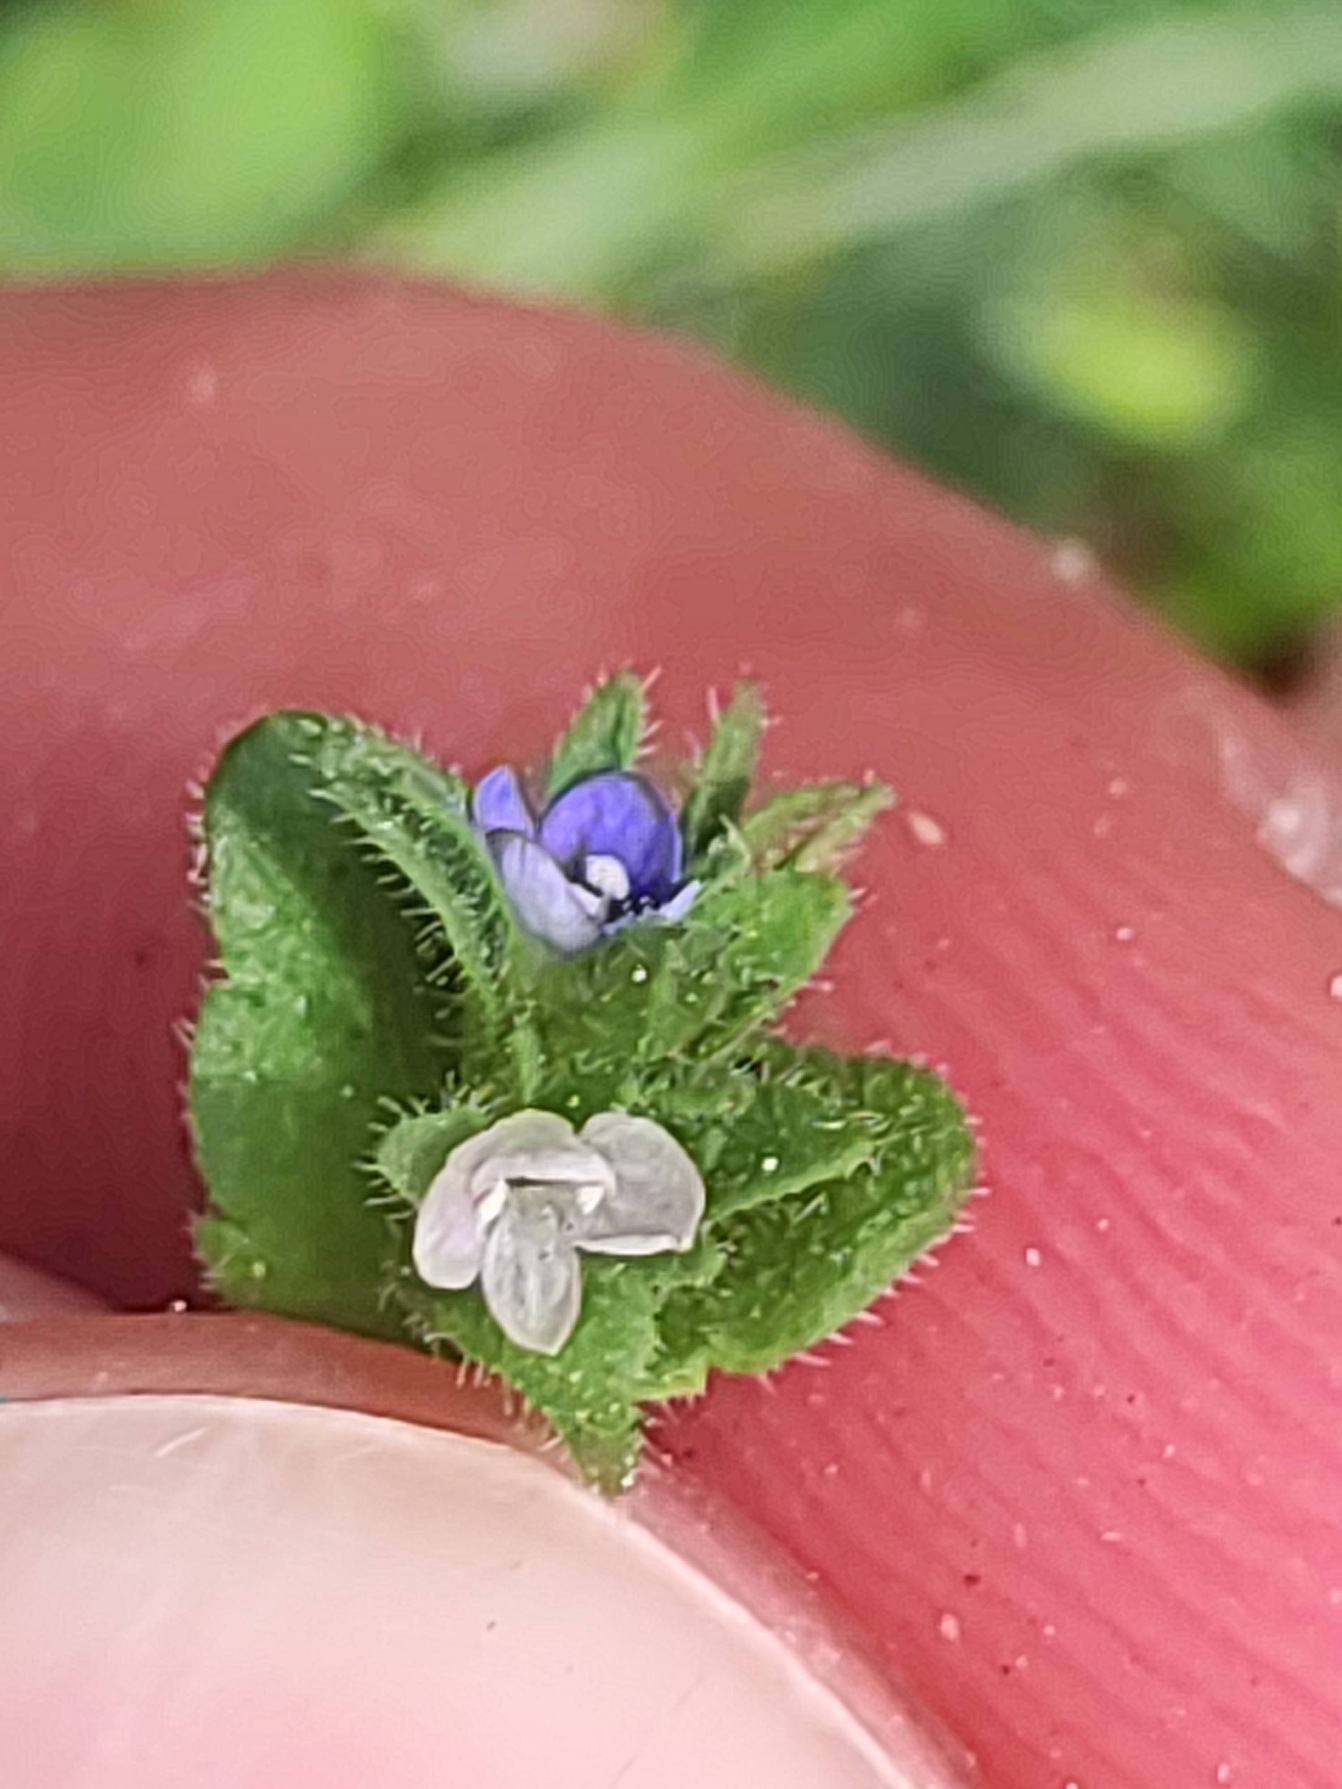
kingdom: Plantae
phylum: Tracheophyta
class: Magnoliopsida
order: Lamiales
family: Plantaginaceae
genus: Veronica
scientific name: Veronica arvensis
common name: Mark-ærenpris
